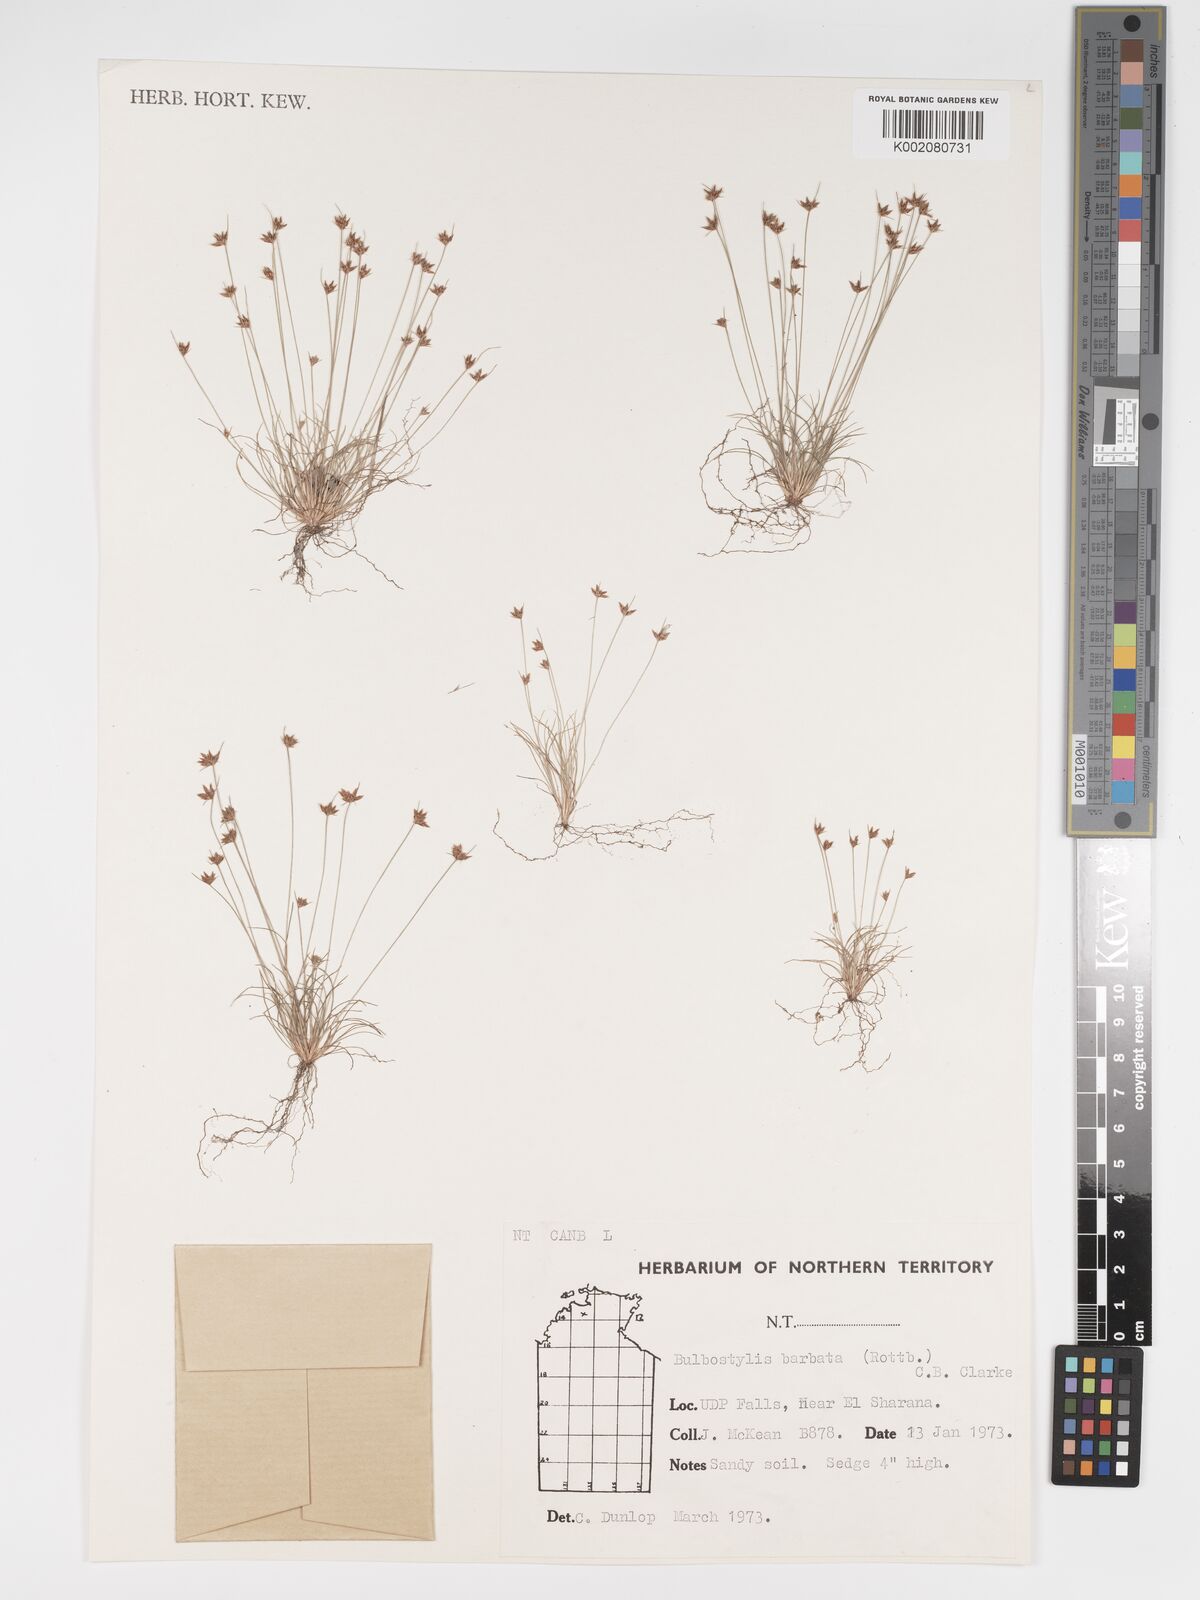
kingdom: Plantae
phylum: Tracheophyta
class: Liliopsida
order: Poales
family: Cyperaceae
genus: Bulbostylis
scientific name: Bulbostylis barbata
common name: Watergrass
